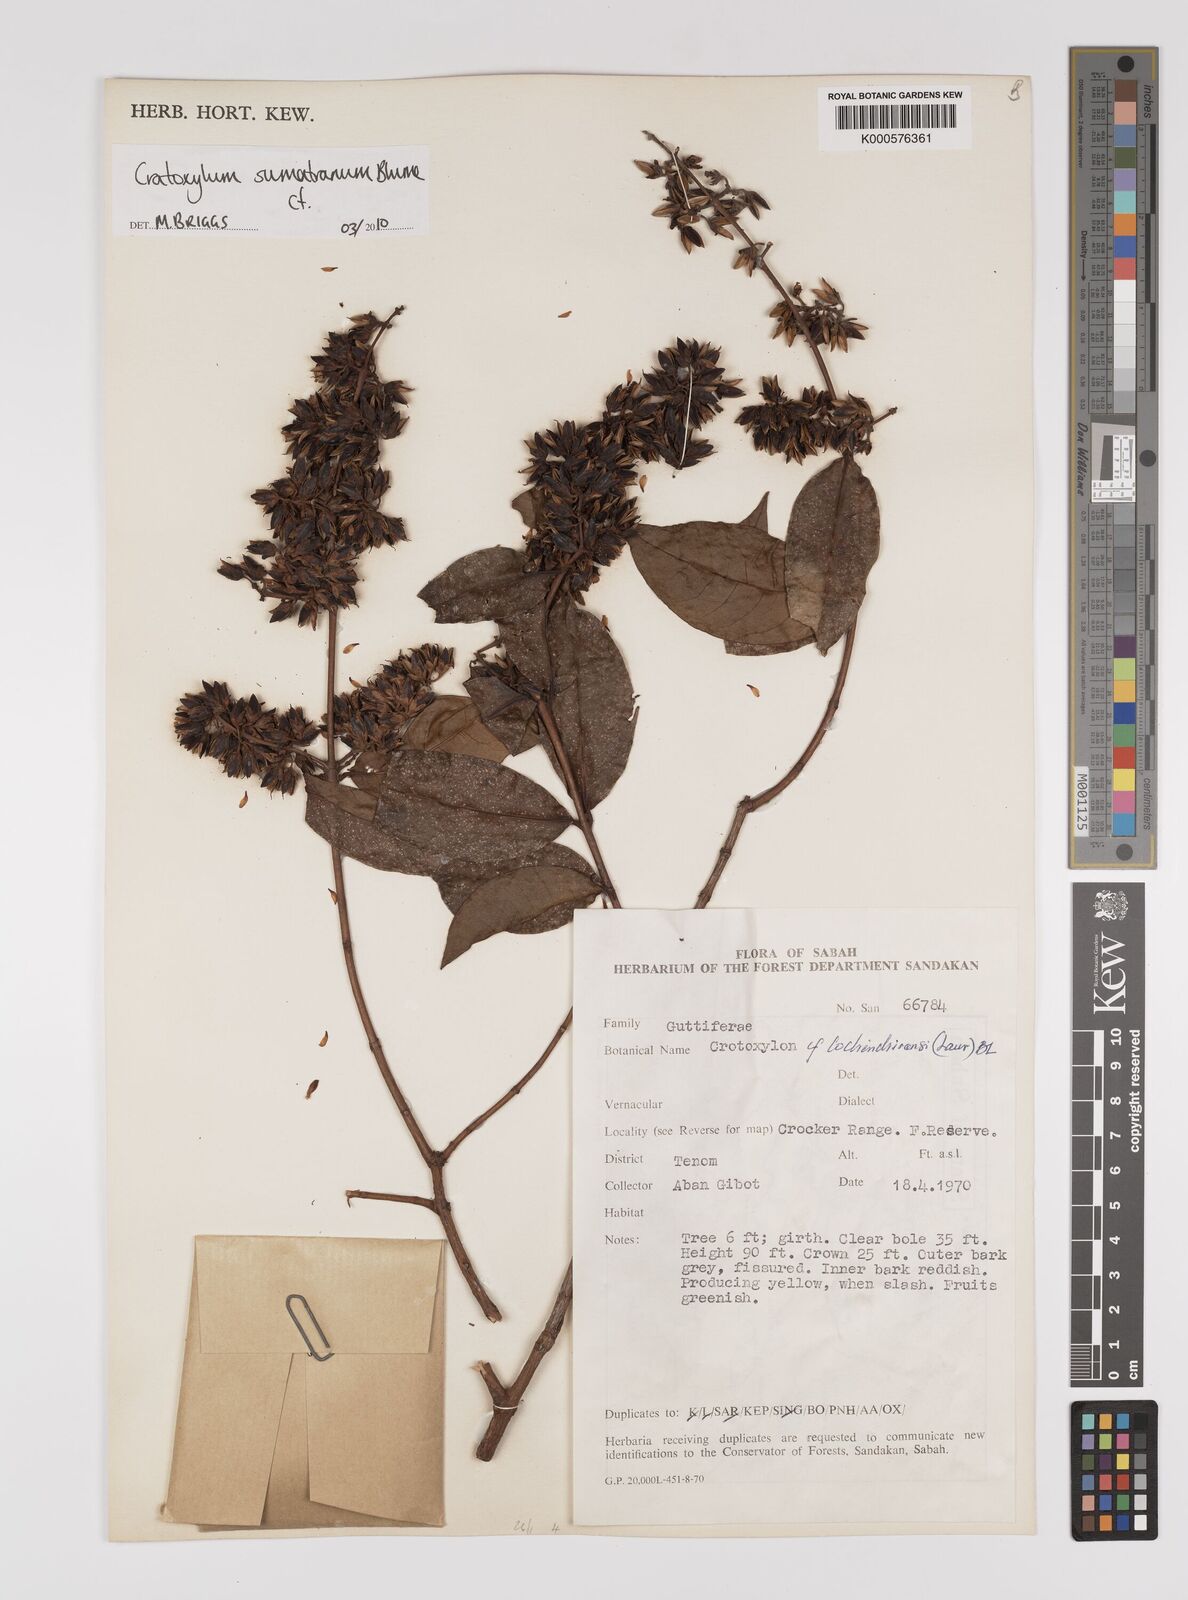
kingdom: Plantae
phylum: Tracheophyta
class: Magnoliopsida
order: Malpighiales
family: Hypericaceae
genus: Cratoxylum
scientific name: Cratoxylum sumatranum
